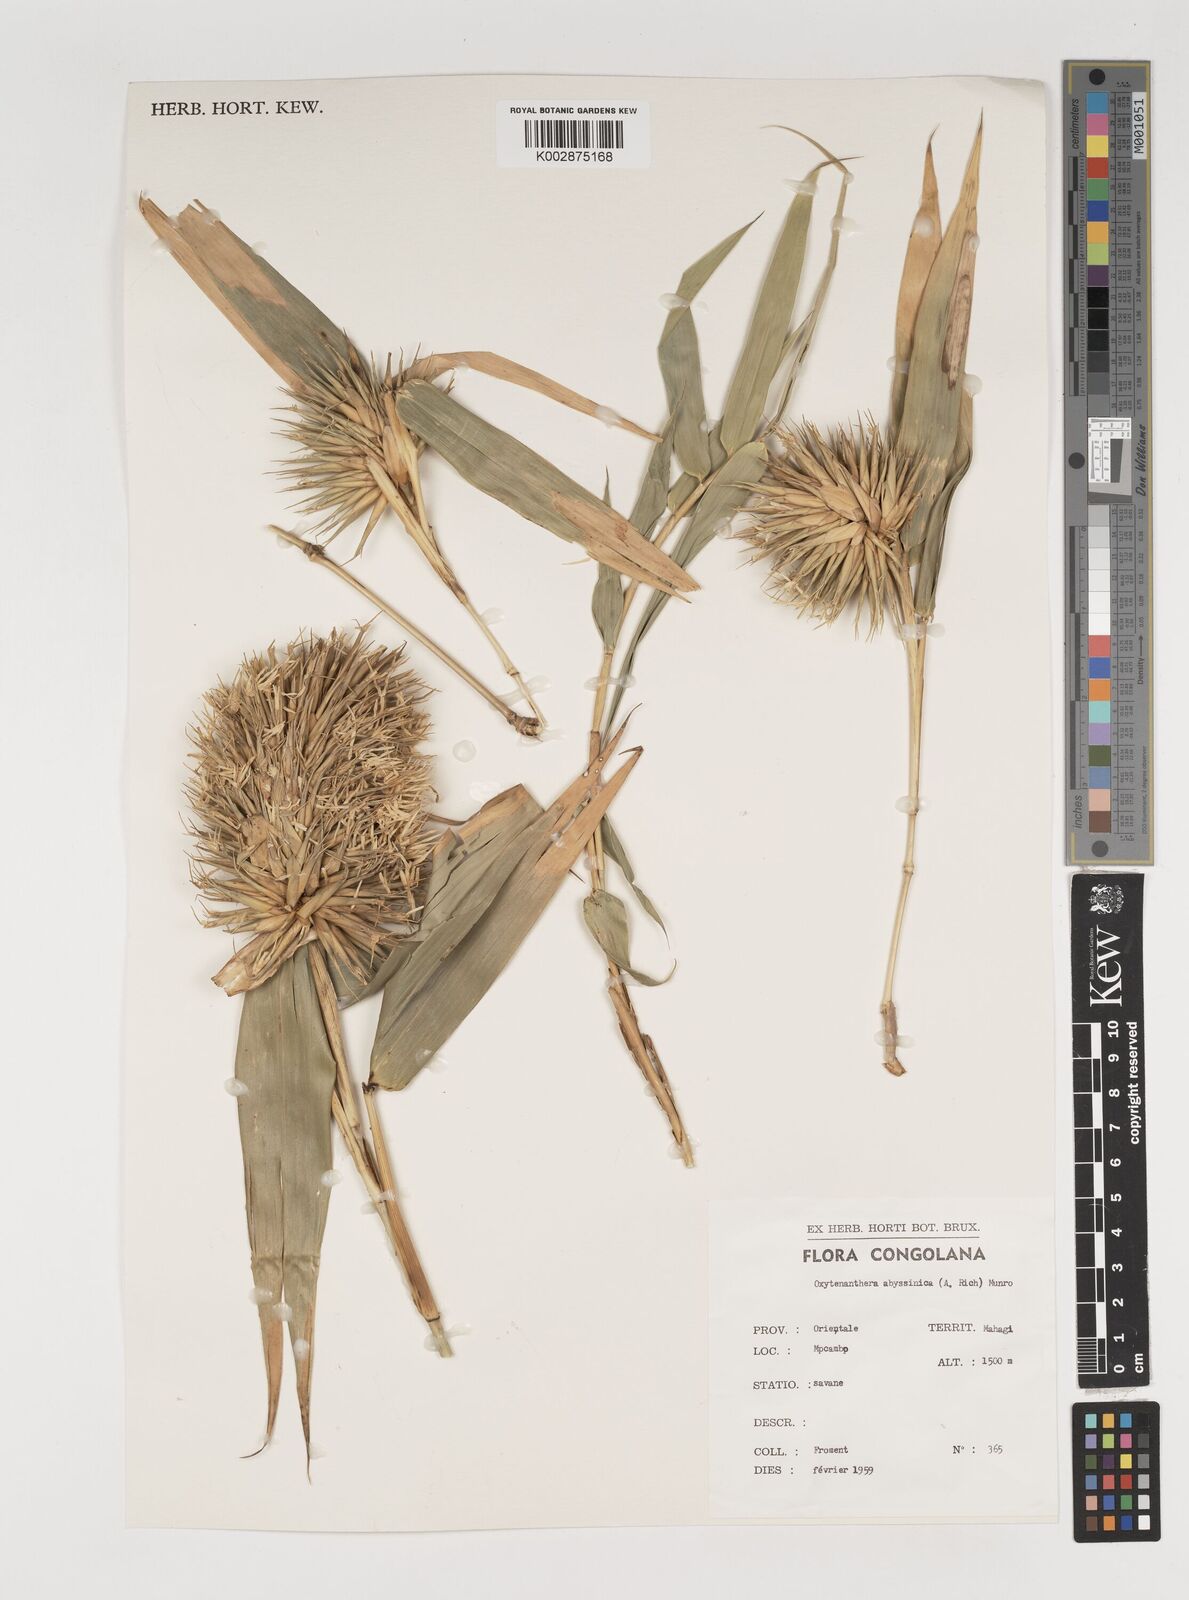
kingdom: Plantae
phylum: Tracheophyta
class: Liliopsida
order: Poales
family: Poaceae
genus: Oxytenanthera
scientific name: Oxytenanthera abyssinica
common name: Wine bamboo
